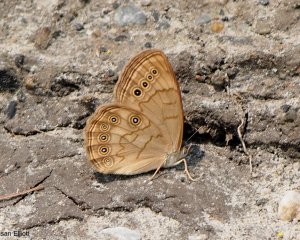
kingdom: Animalia
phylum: Arthropoda
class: Insecta
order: Lepidoptera
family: Nymphalidae
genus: Lethe
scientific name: Lethe eurydice
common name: Eyed Brown
